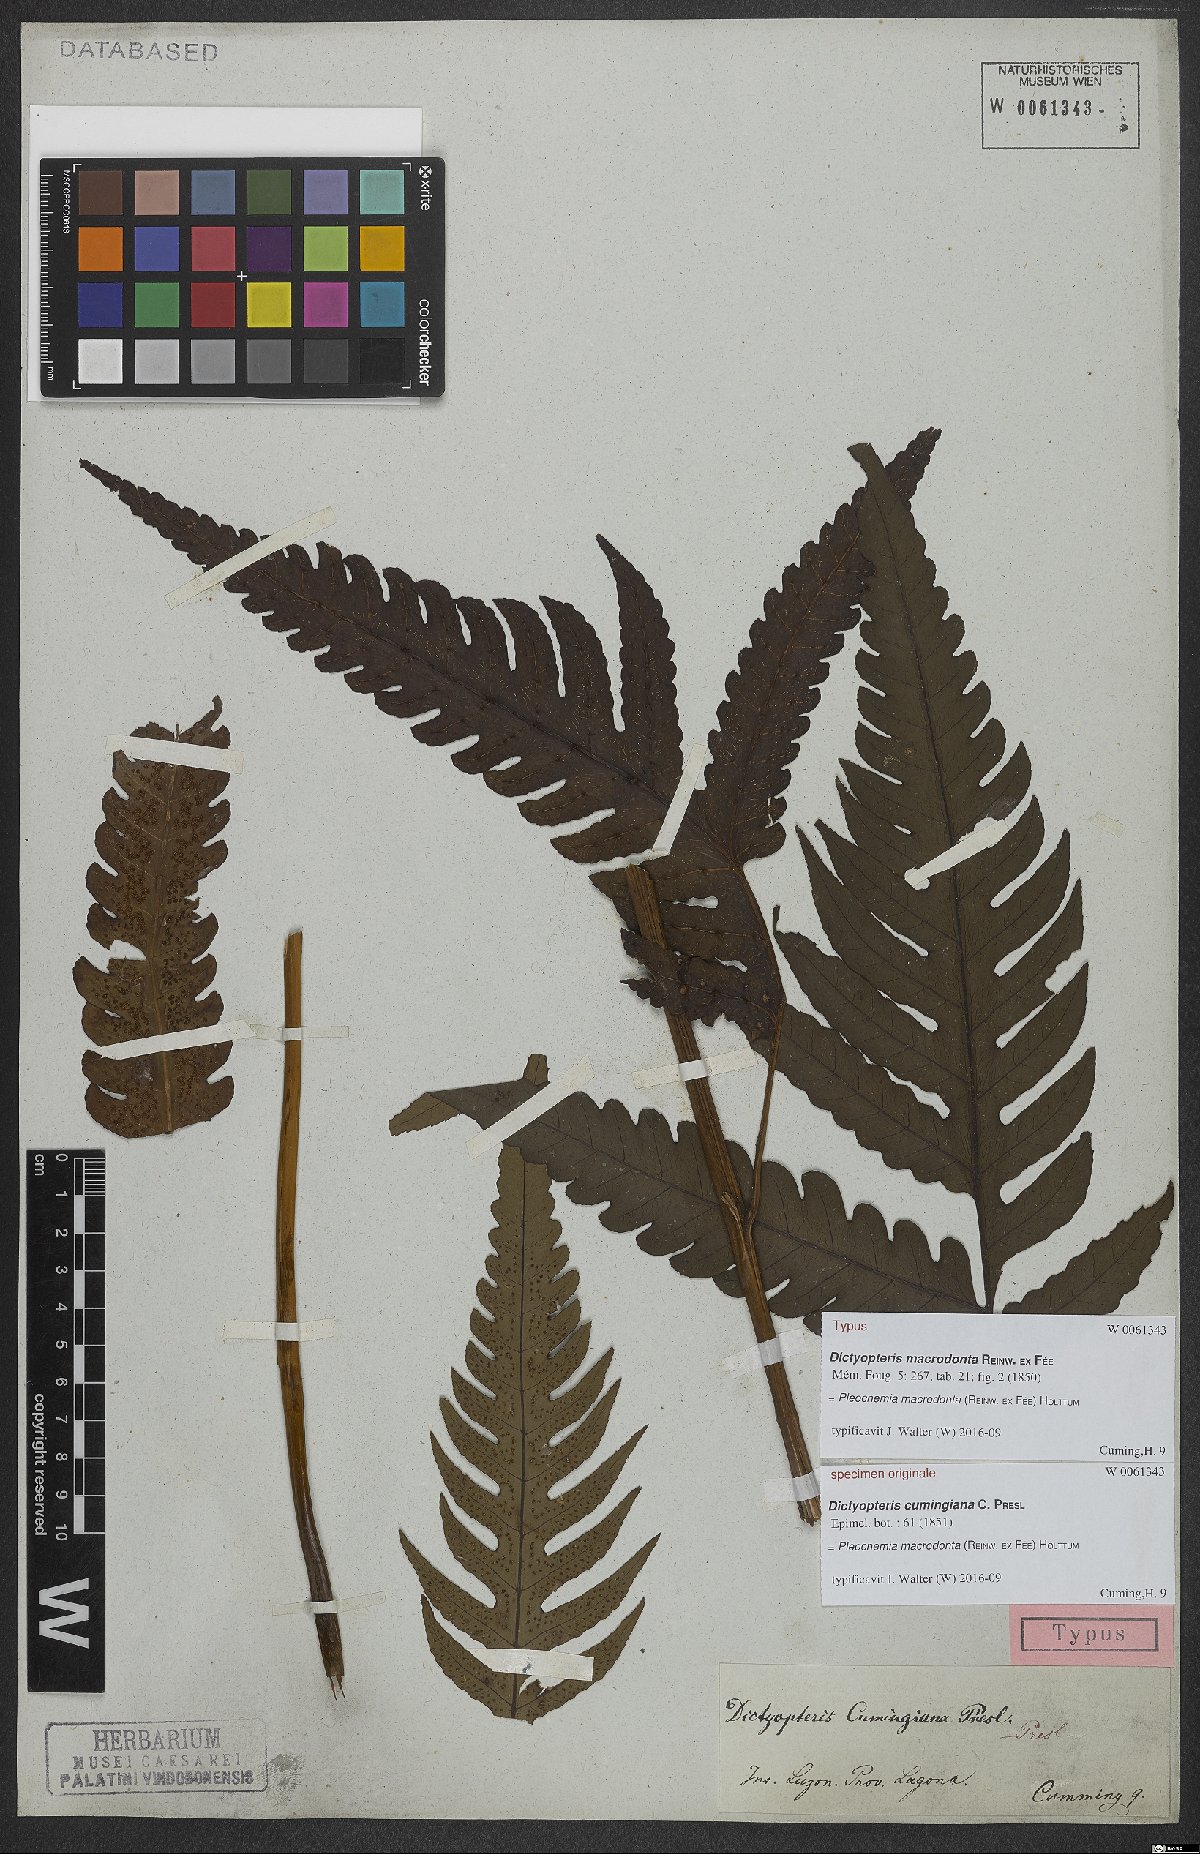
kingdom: Plantae
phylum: Tracheophyta
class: Polypodiopsida
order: Polypodiales
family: Dryopteridaceae
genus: Pleocnemia
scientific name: Pleocnemia macrodonta
